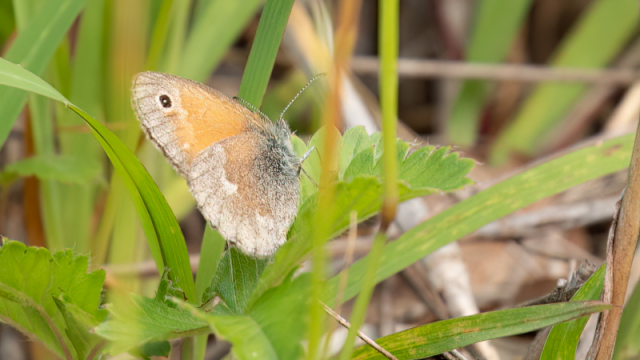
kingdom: Animalia
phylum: Arthropoda
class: Insecta
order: Lepidoptera
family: Nymphalidae
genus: Coenonympha
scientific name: Coenonympha tullia
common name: Large Heath
